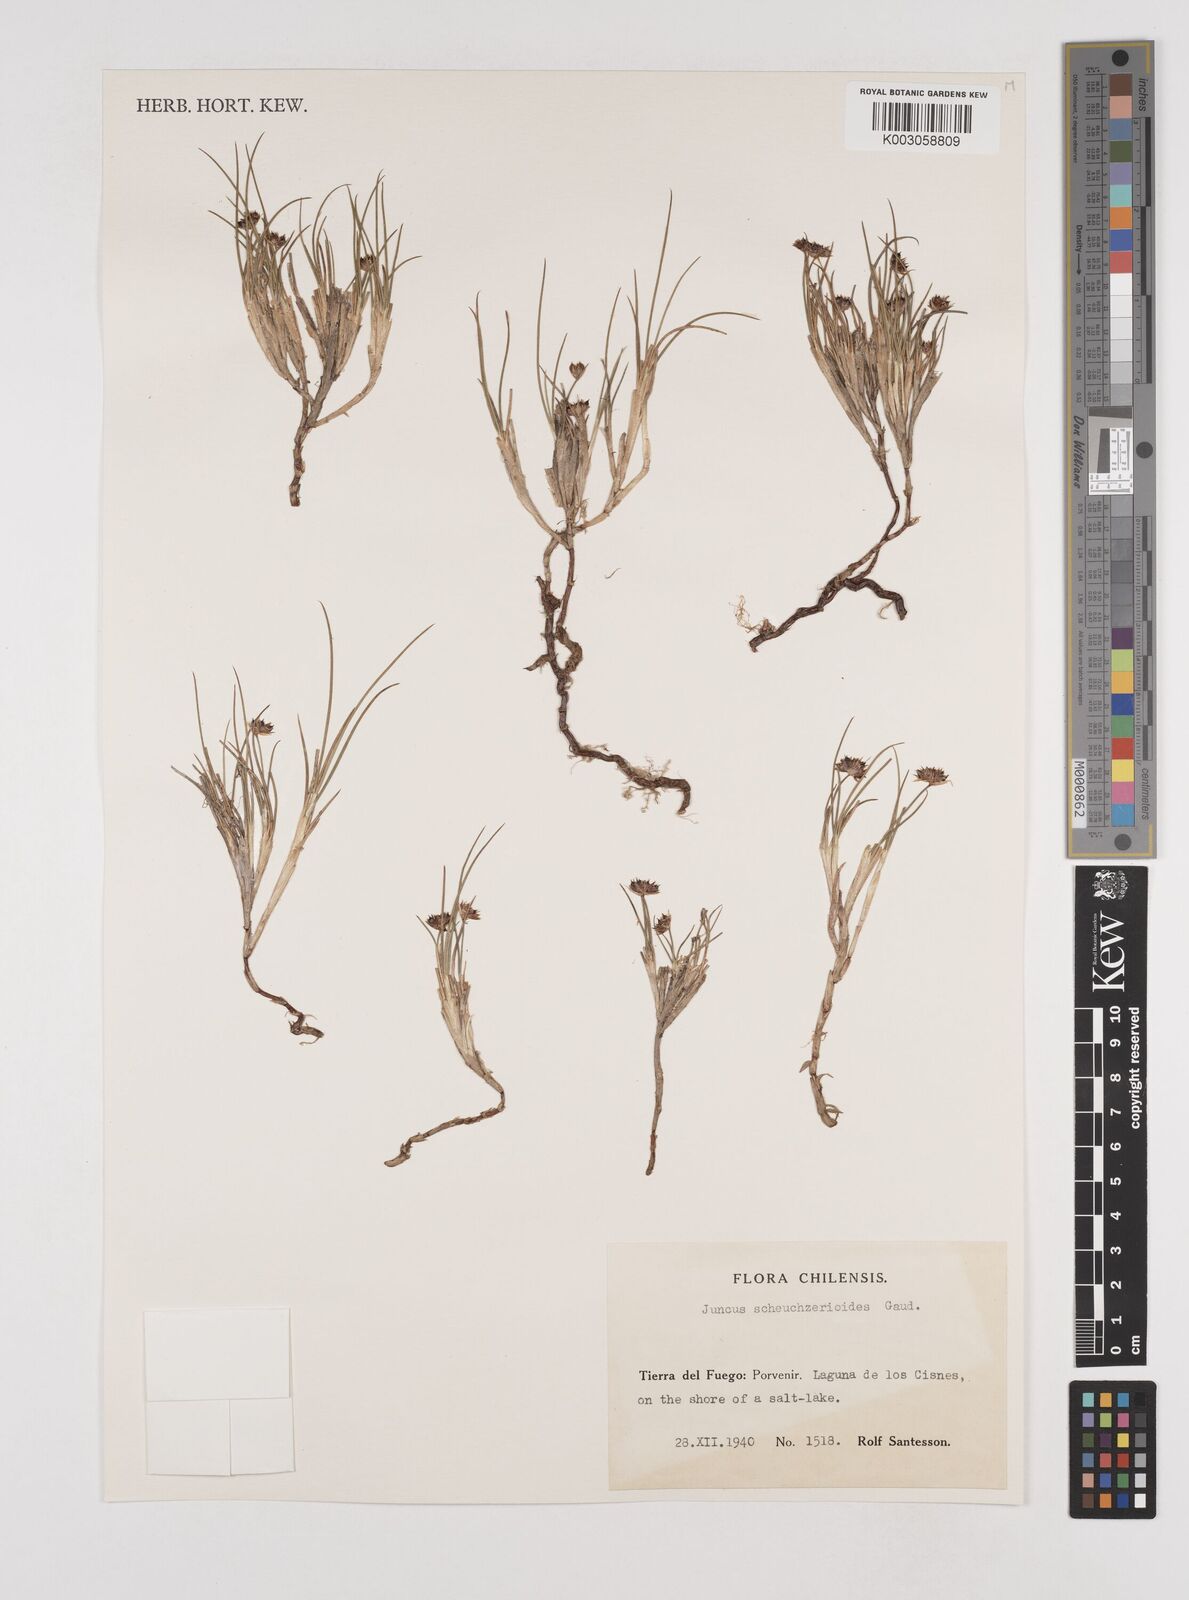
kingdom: Plantae
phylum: Tracheophyta
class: Liliopsida
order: Poales
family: Juncaceae
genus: Juncus
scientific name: Juncus scheuchzerioides
